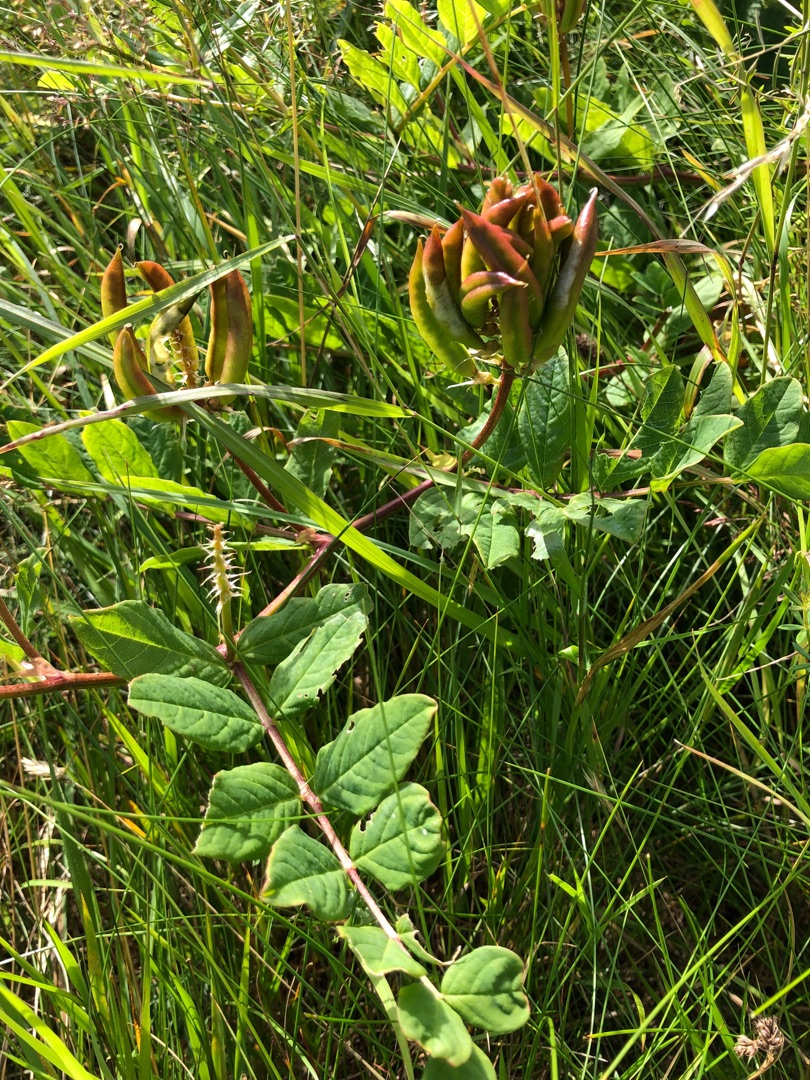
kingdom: Plantae
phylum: Tracheophyta
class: Magnoliopsida
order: Fabales
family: Fabaceae
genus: Astragalus
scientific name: Astragalus glycyphyllos
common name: Sød astragel
